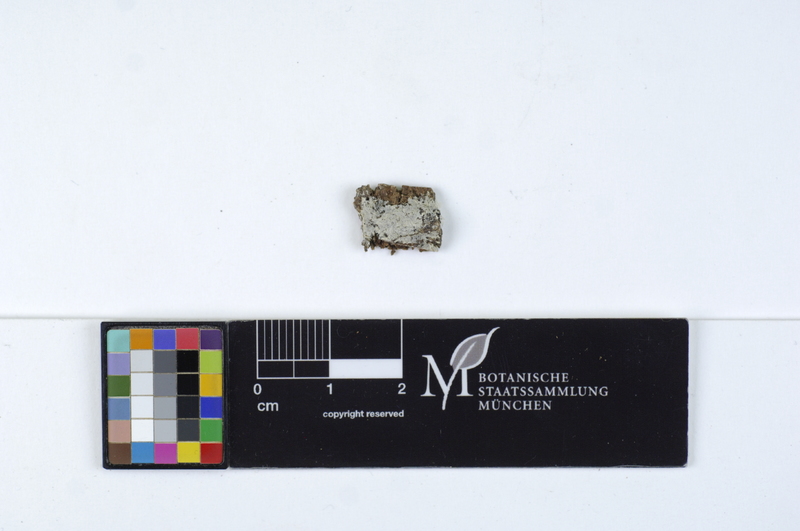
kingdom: Fungi
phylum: Basidiomycota
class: Agaricomycetes
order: Agaricales
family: Stephanosporaceae
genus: Cristinia
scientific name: Cristinia rhenana
